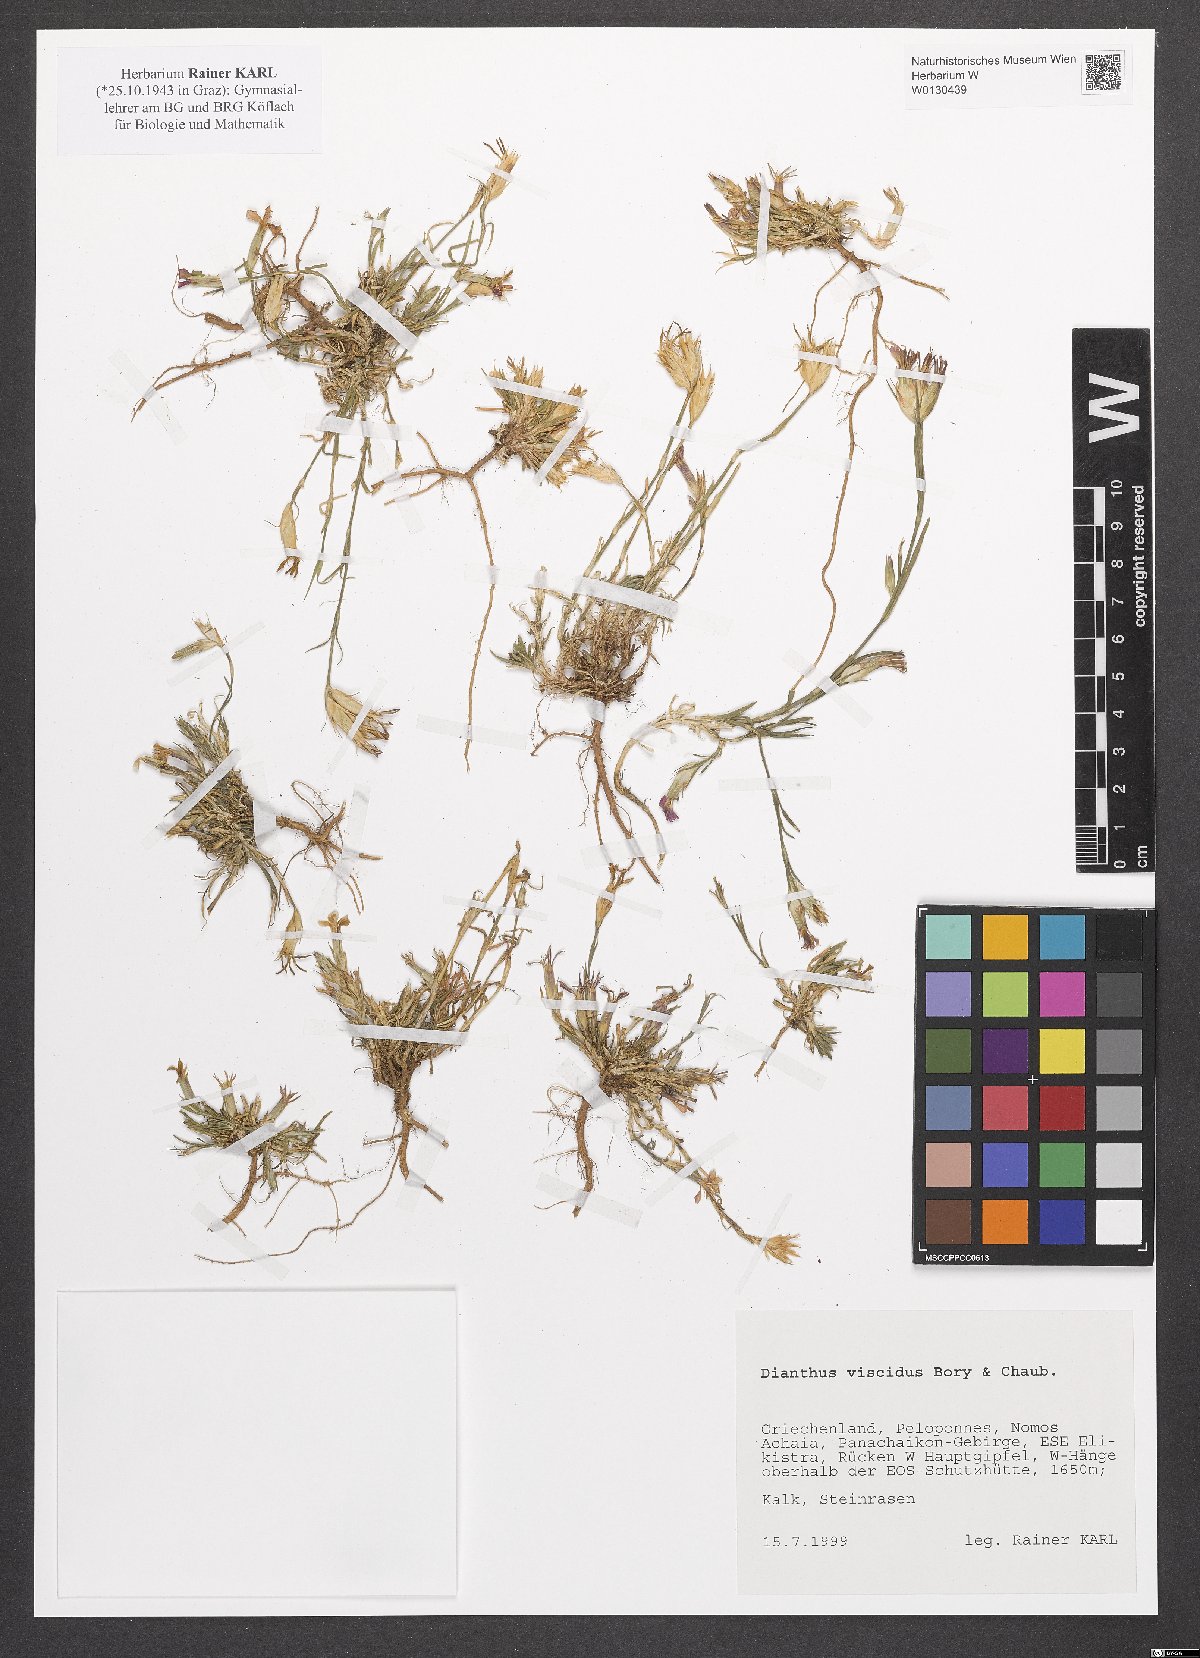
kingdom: Plantae
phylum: Tracheophyta
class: Magnoliopsida
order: Caryophyllales
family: Caryophyllaceae
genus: Dianthus
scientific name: Dianthus viscidus
